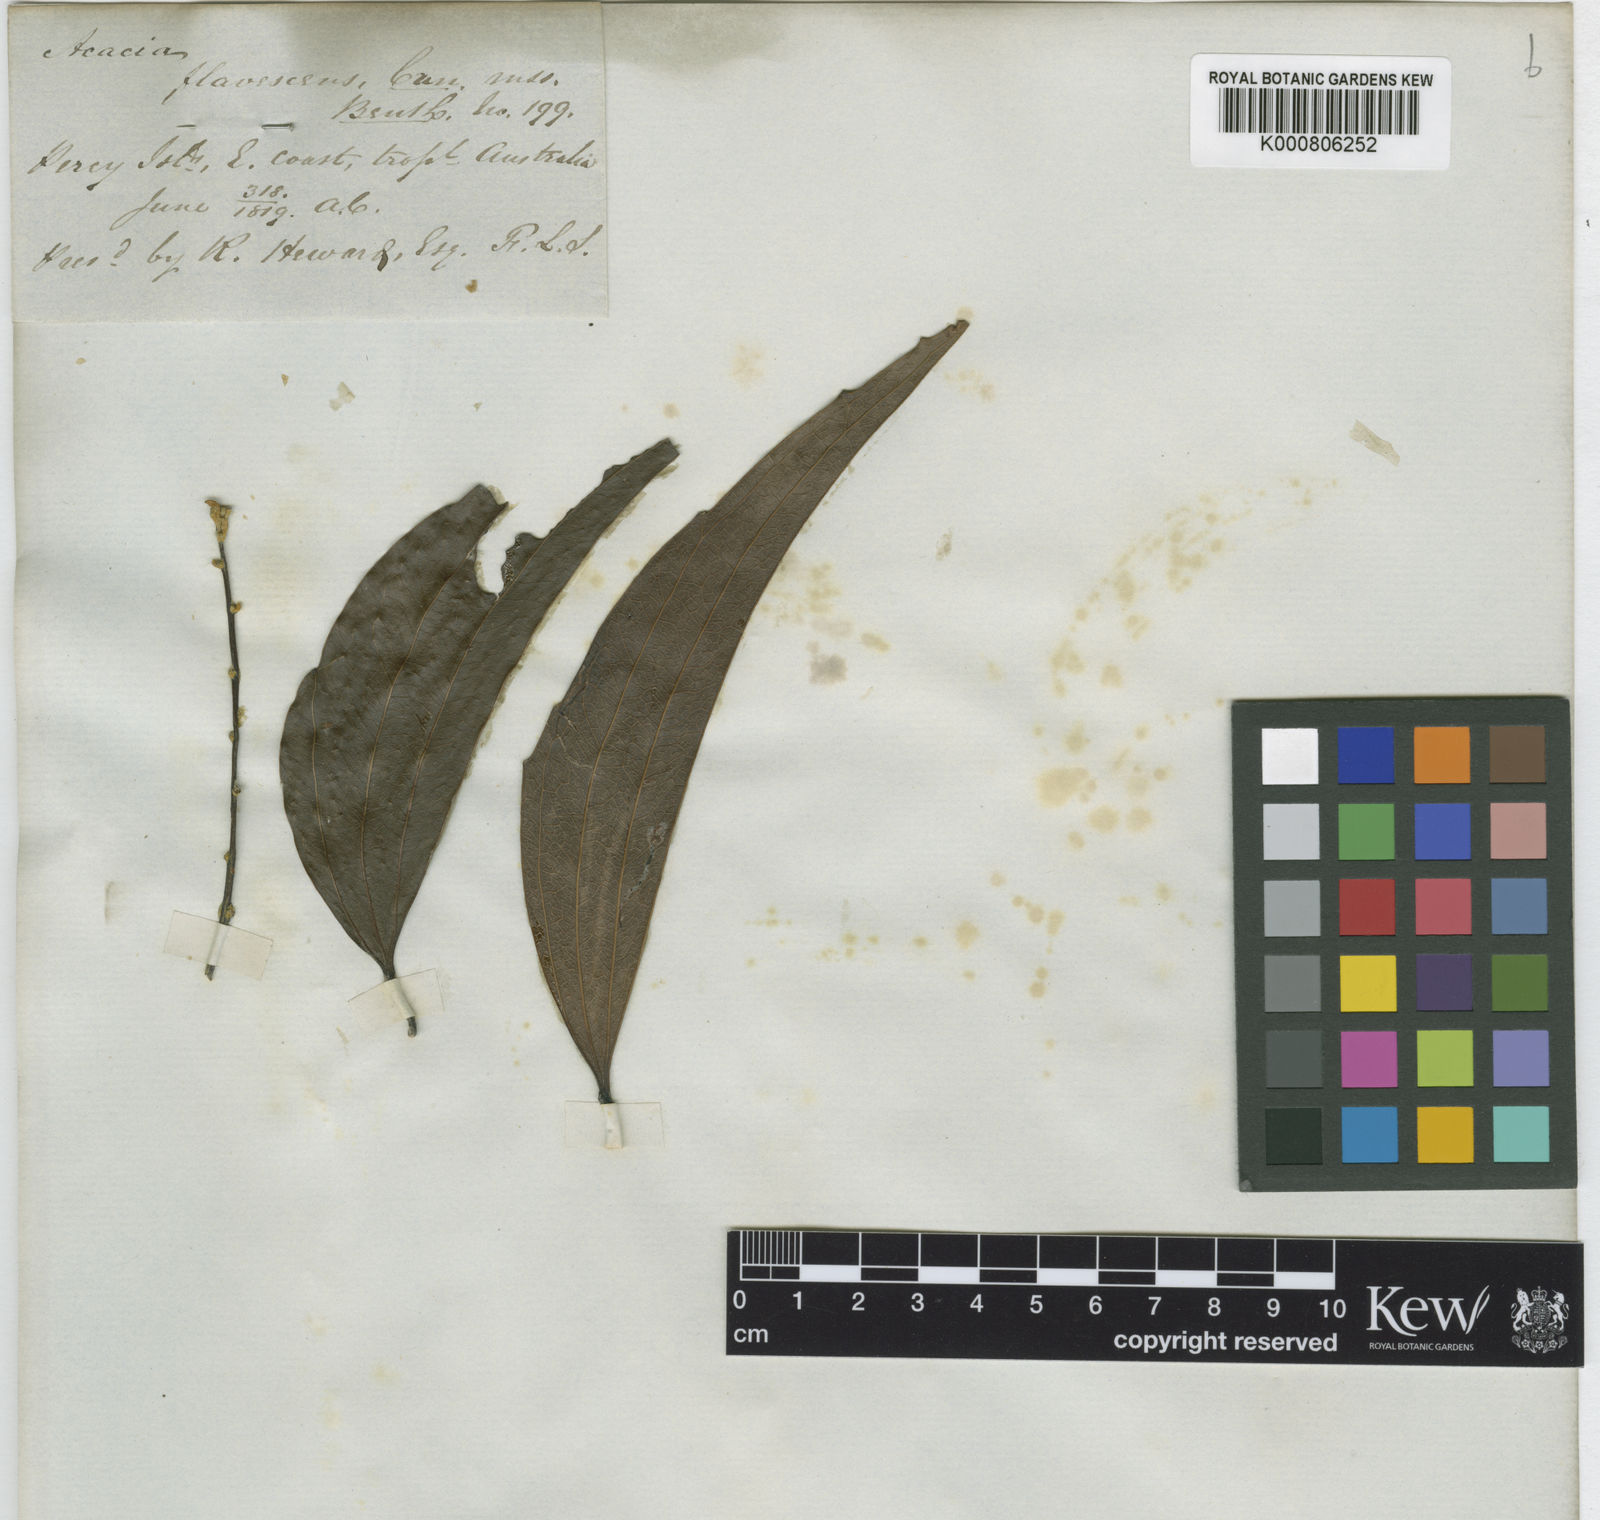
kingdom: Plantae
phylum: Tracheophyta
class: Magnoliopsida
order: Fabales
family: Fabaceae
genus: Acacia
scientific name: Acacia
